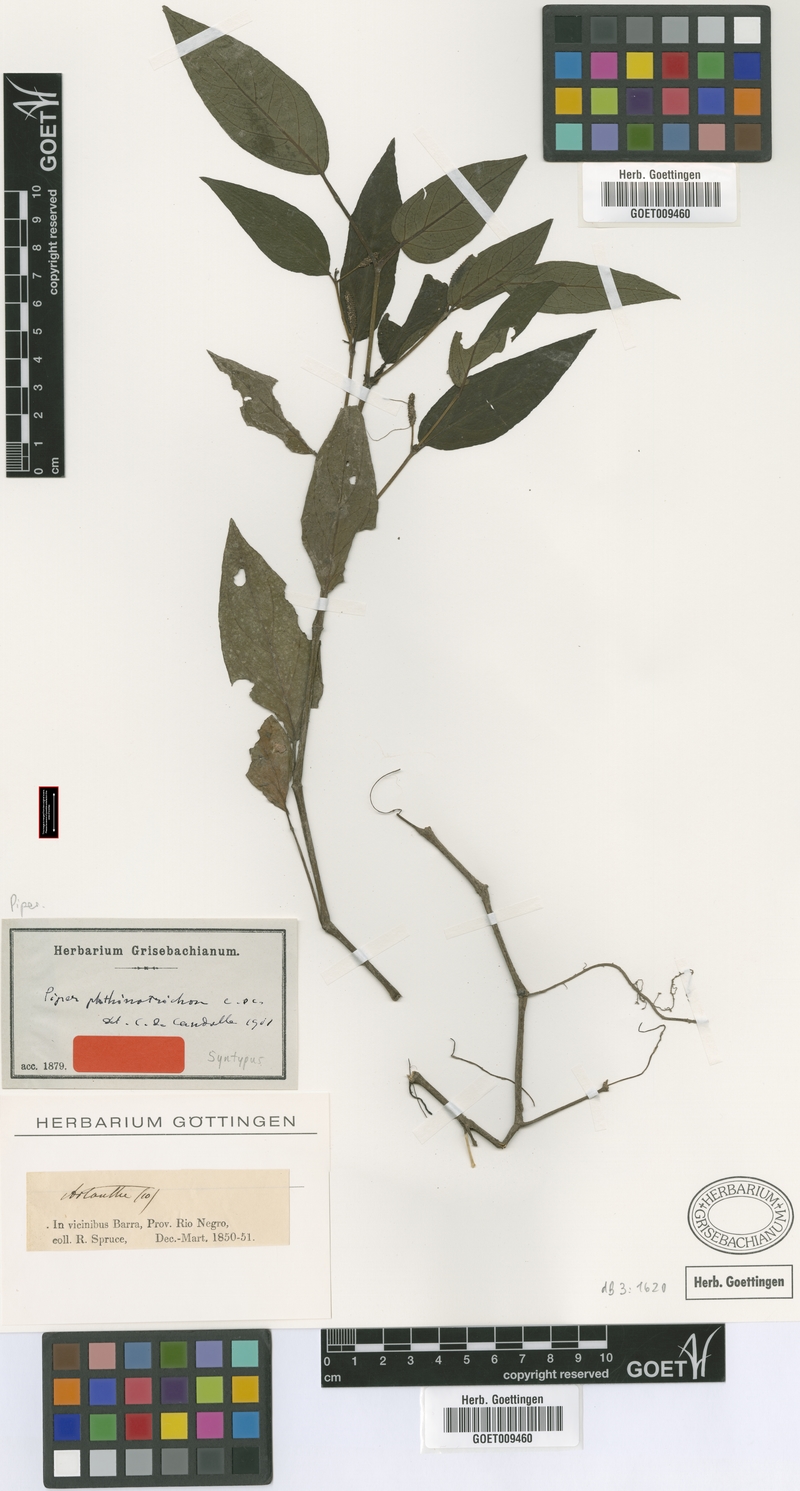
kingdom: Plantae
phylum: Tracheophyta
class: Magnoliopsida
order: Piperales
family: Piperaceae
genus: Piper
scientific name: Piper phytolaccifolium
